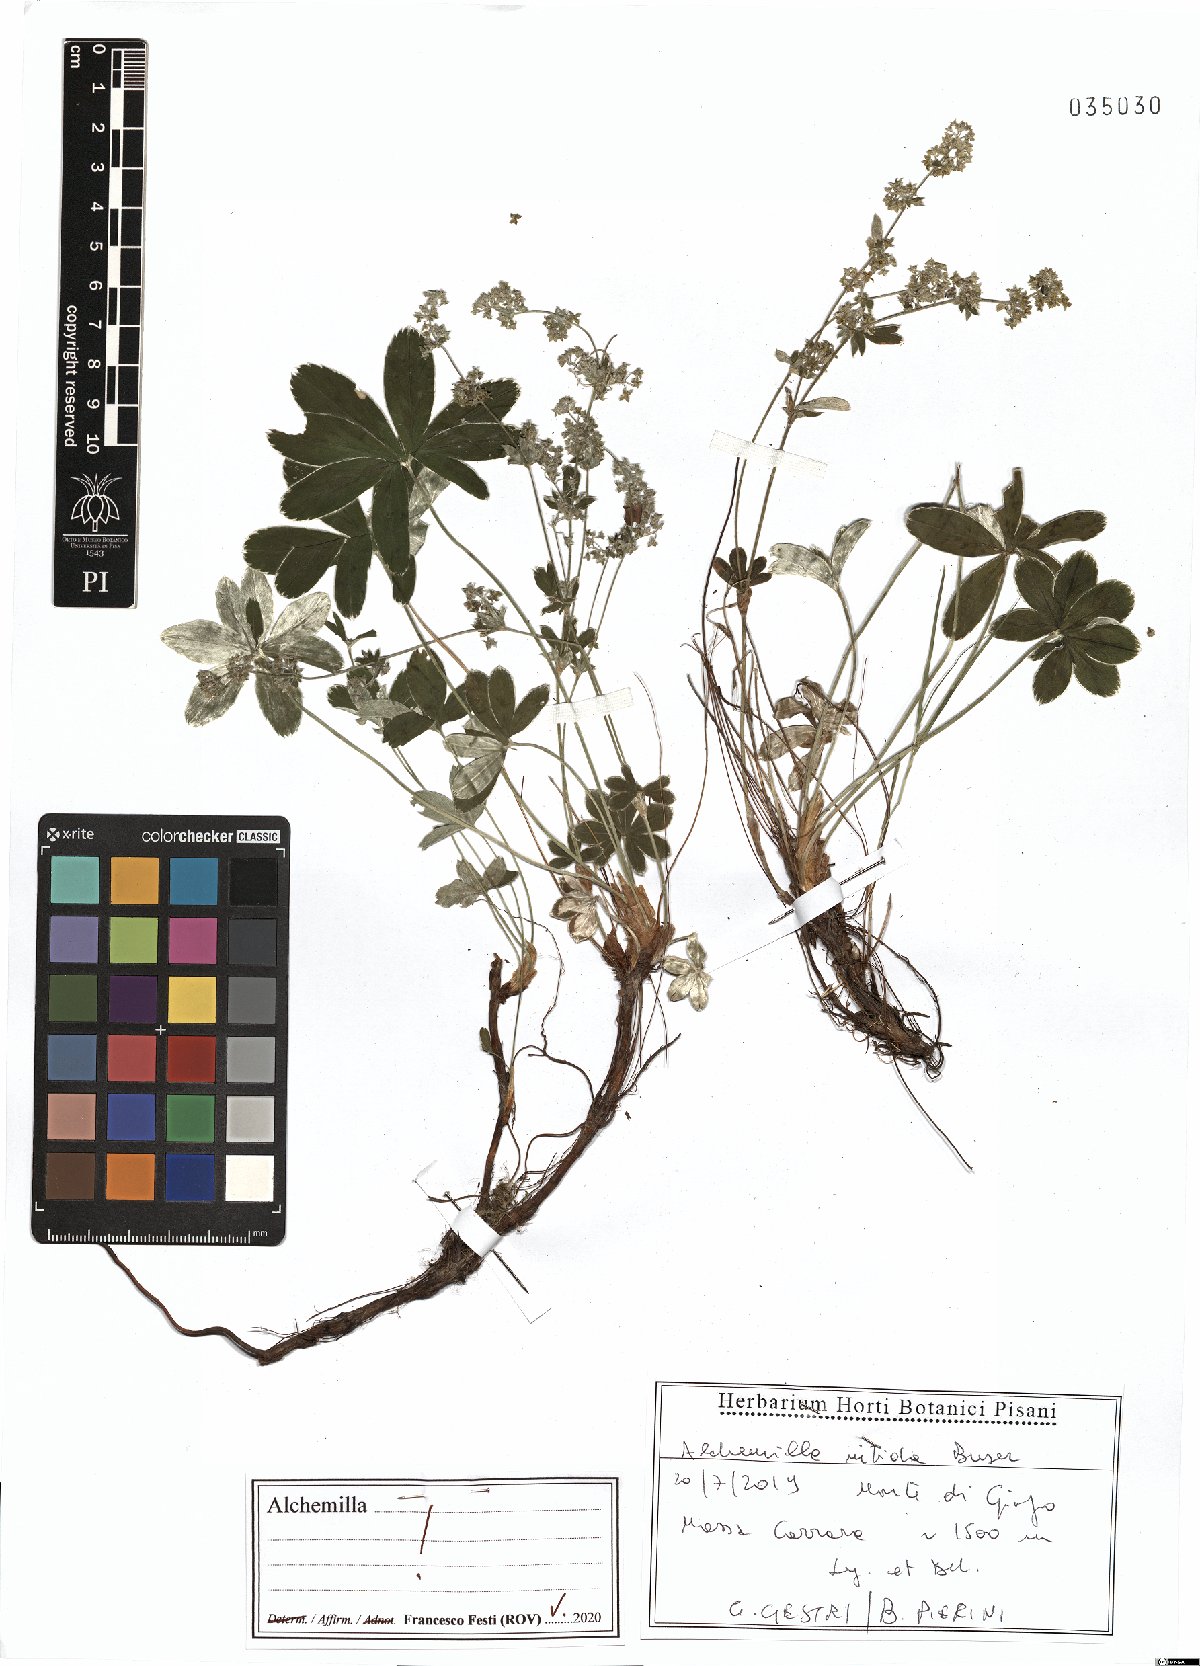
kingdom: Plantae
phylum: Tracheophyta
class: Magnoliopsida
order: Rosales
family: Rosaceae
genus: Alchemilla
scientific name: Alchemilla nitida
